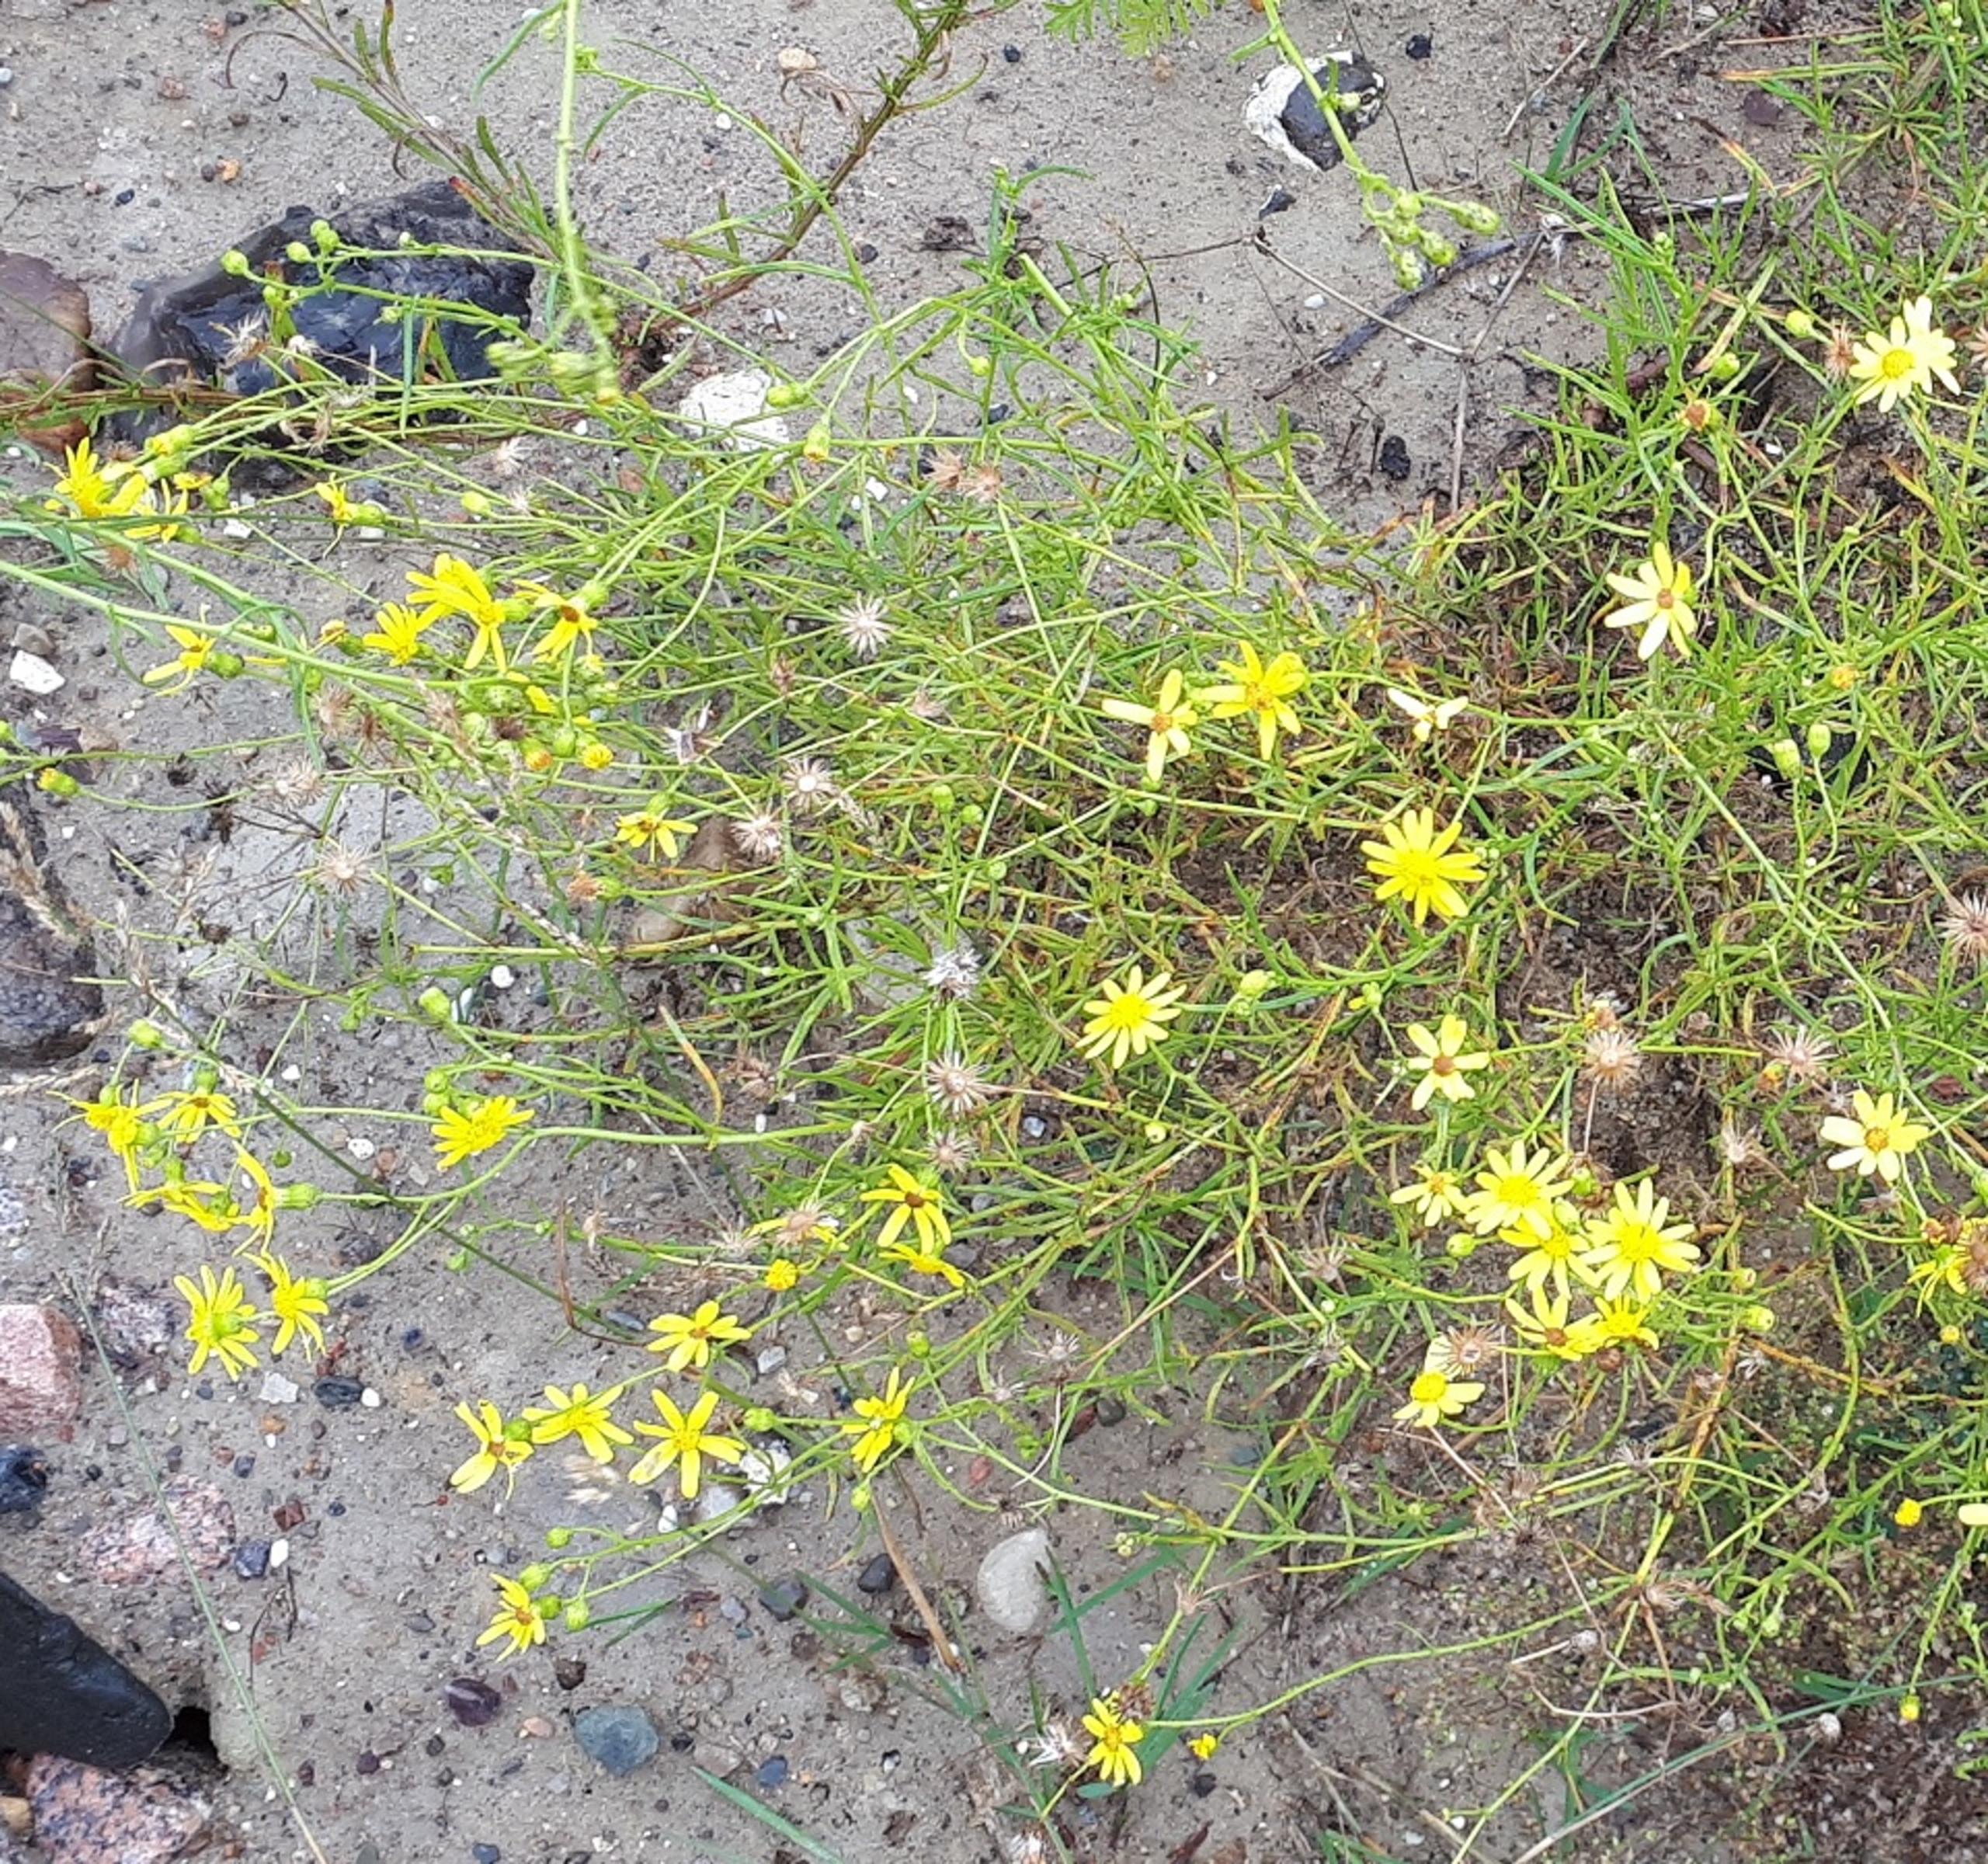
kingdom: Plantae
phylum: Tracheophyta
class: Magnoliopsida
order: Asterales
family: Asteraceae
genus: Senecio
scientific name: Senecio inaequidens
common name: Smalbladet brandbæger
